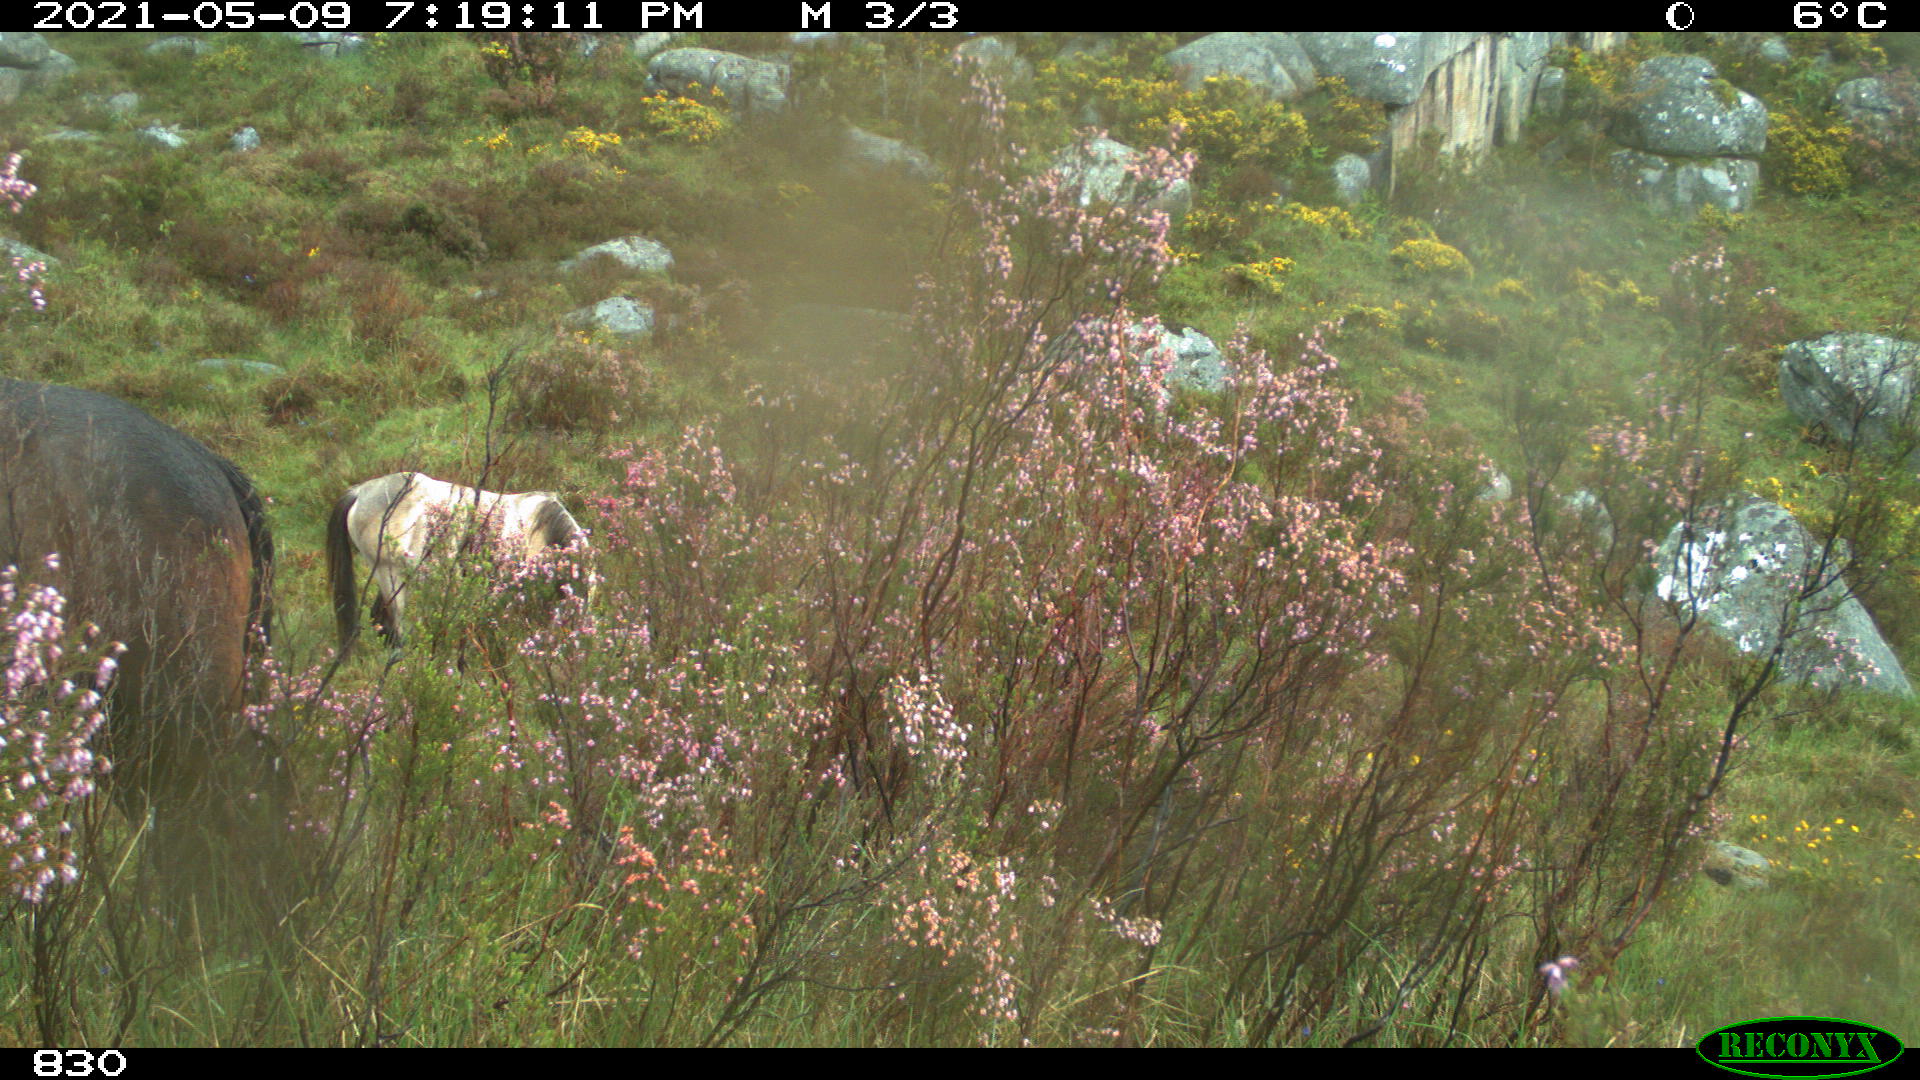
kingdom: Animalia
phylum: Chordata
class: Mammalia
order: Perissodactyla
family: Equidae
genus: Equus
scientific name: Equus caballus
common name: Horse
